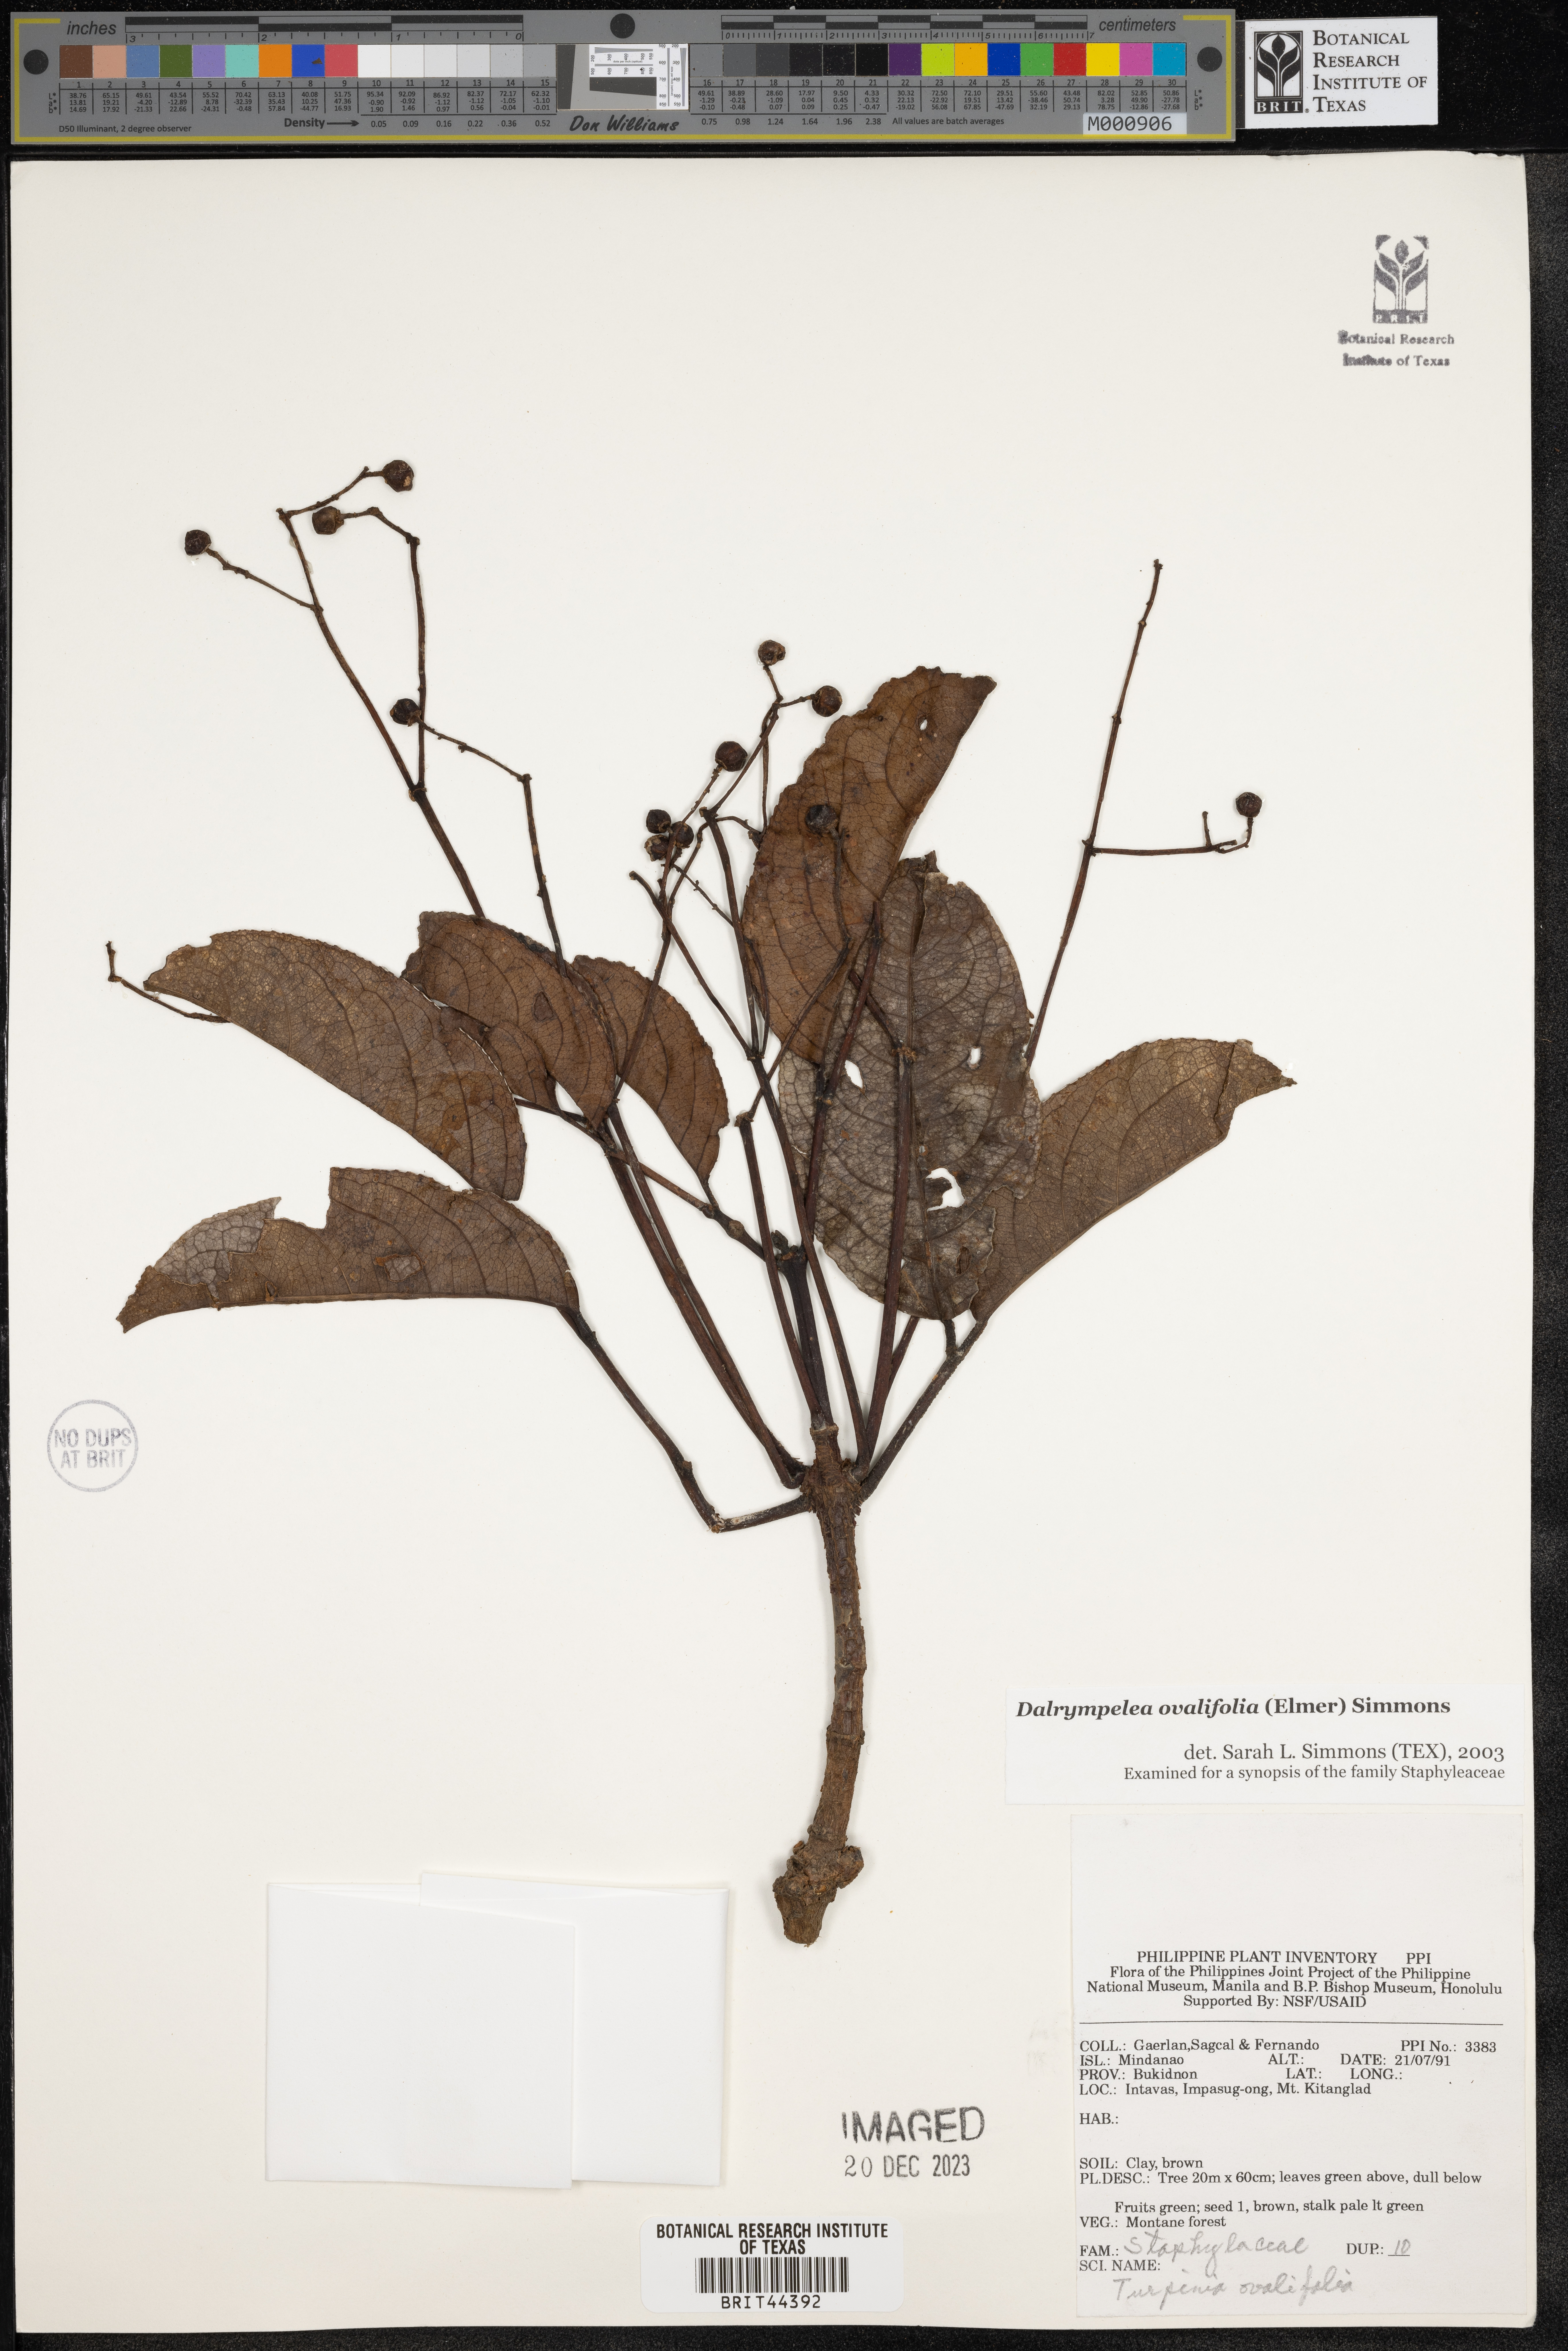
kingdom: Plantae
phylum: Tracheophyta
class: Magnoliopsida
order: Crossosomatales
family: Staphyleaceae
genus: Dalrympelea
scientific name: Dalrympelea
